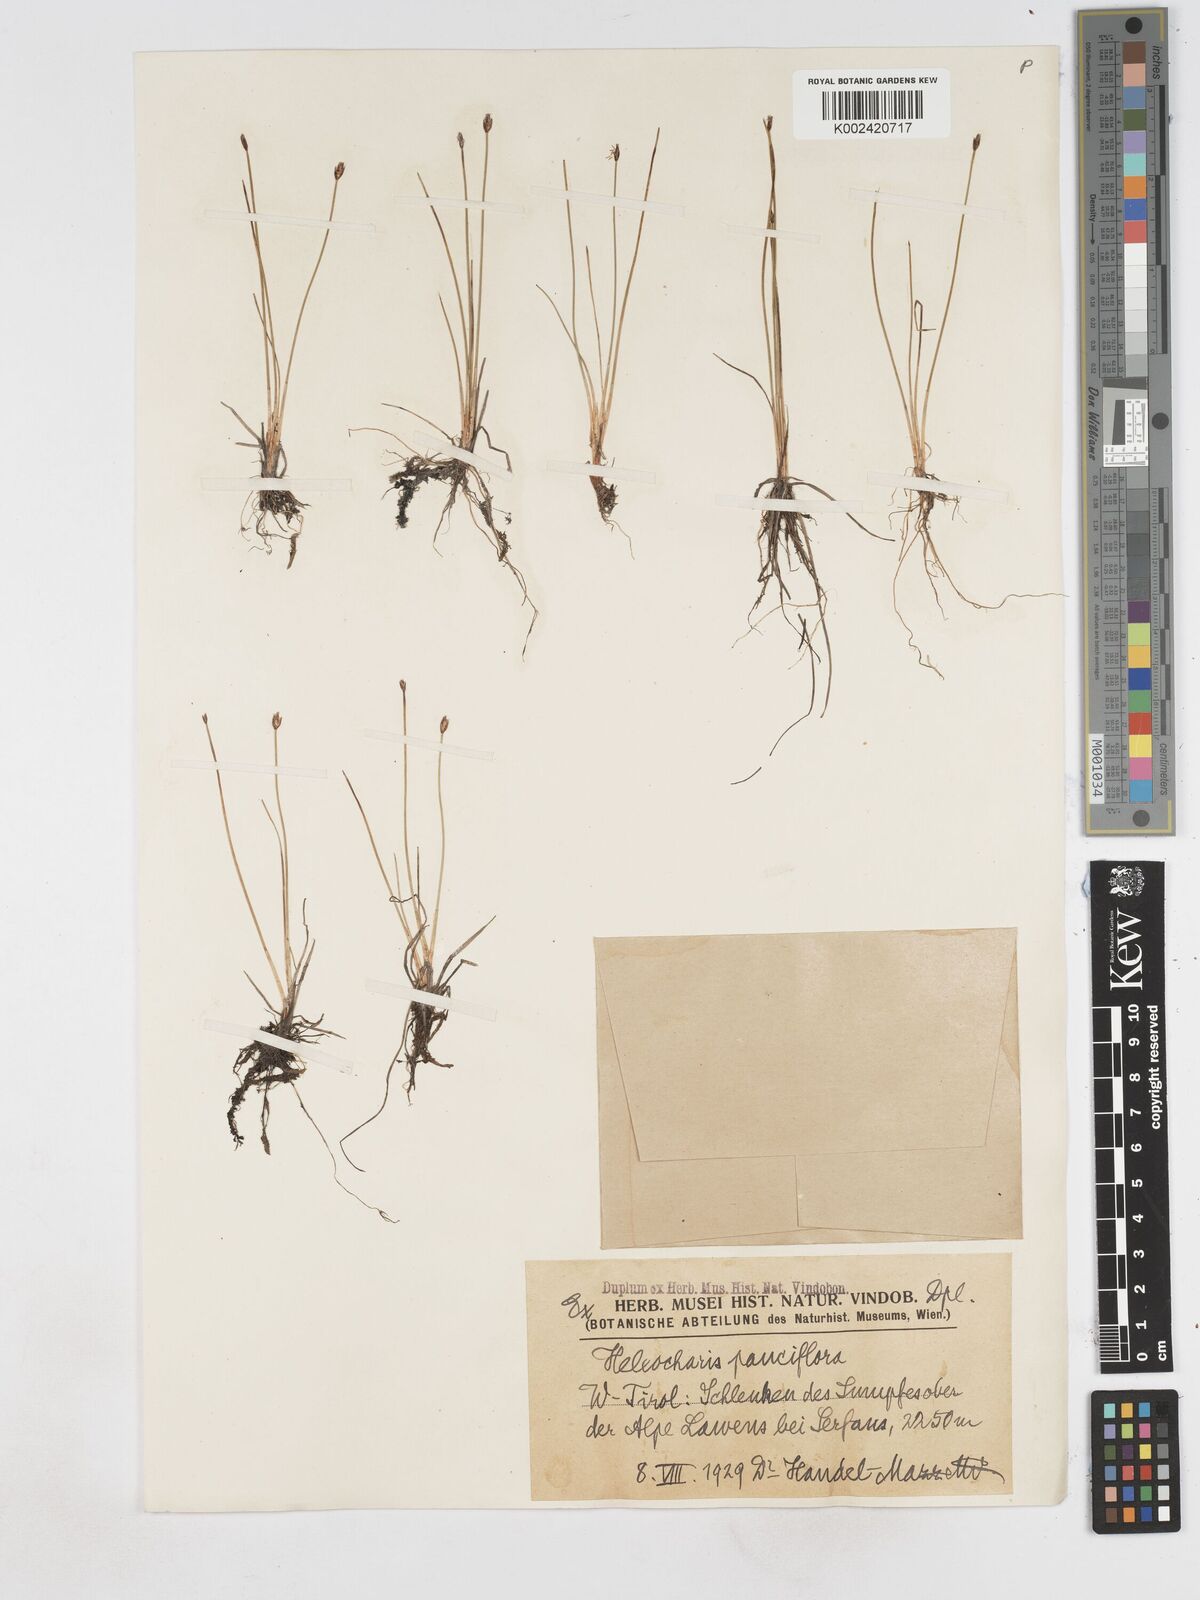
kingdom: Plantae
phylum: Tracheophyta
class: Liliopsida
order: Poales
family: Cyperaceae
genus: Eleocharis
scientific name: Eleocharis quinqueflora
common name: Few-flowered spike-rush
